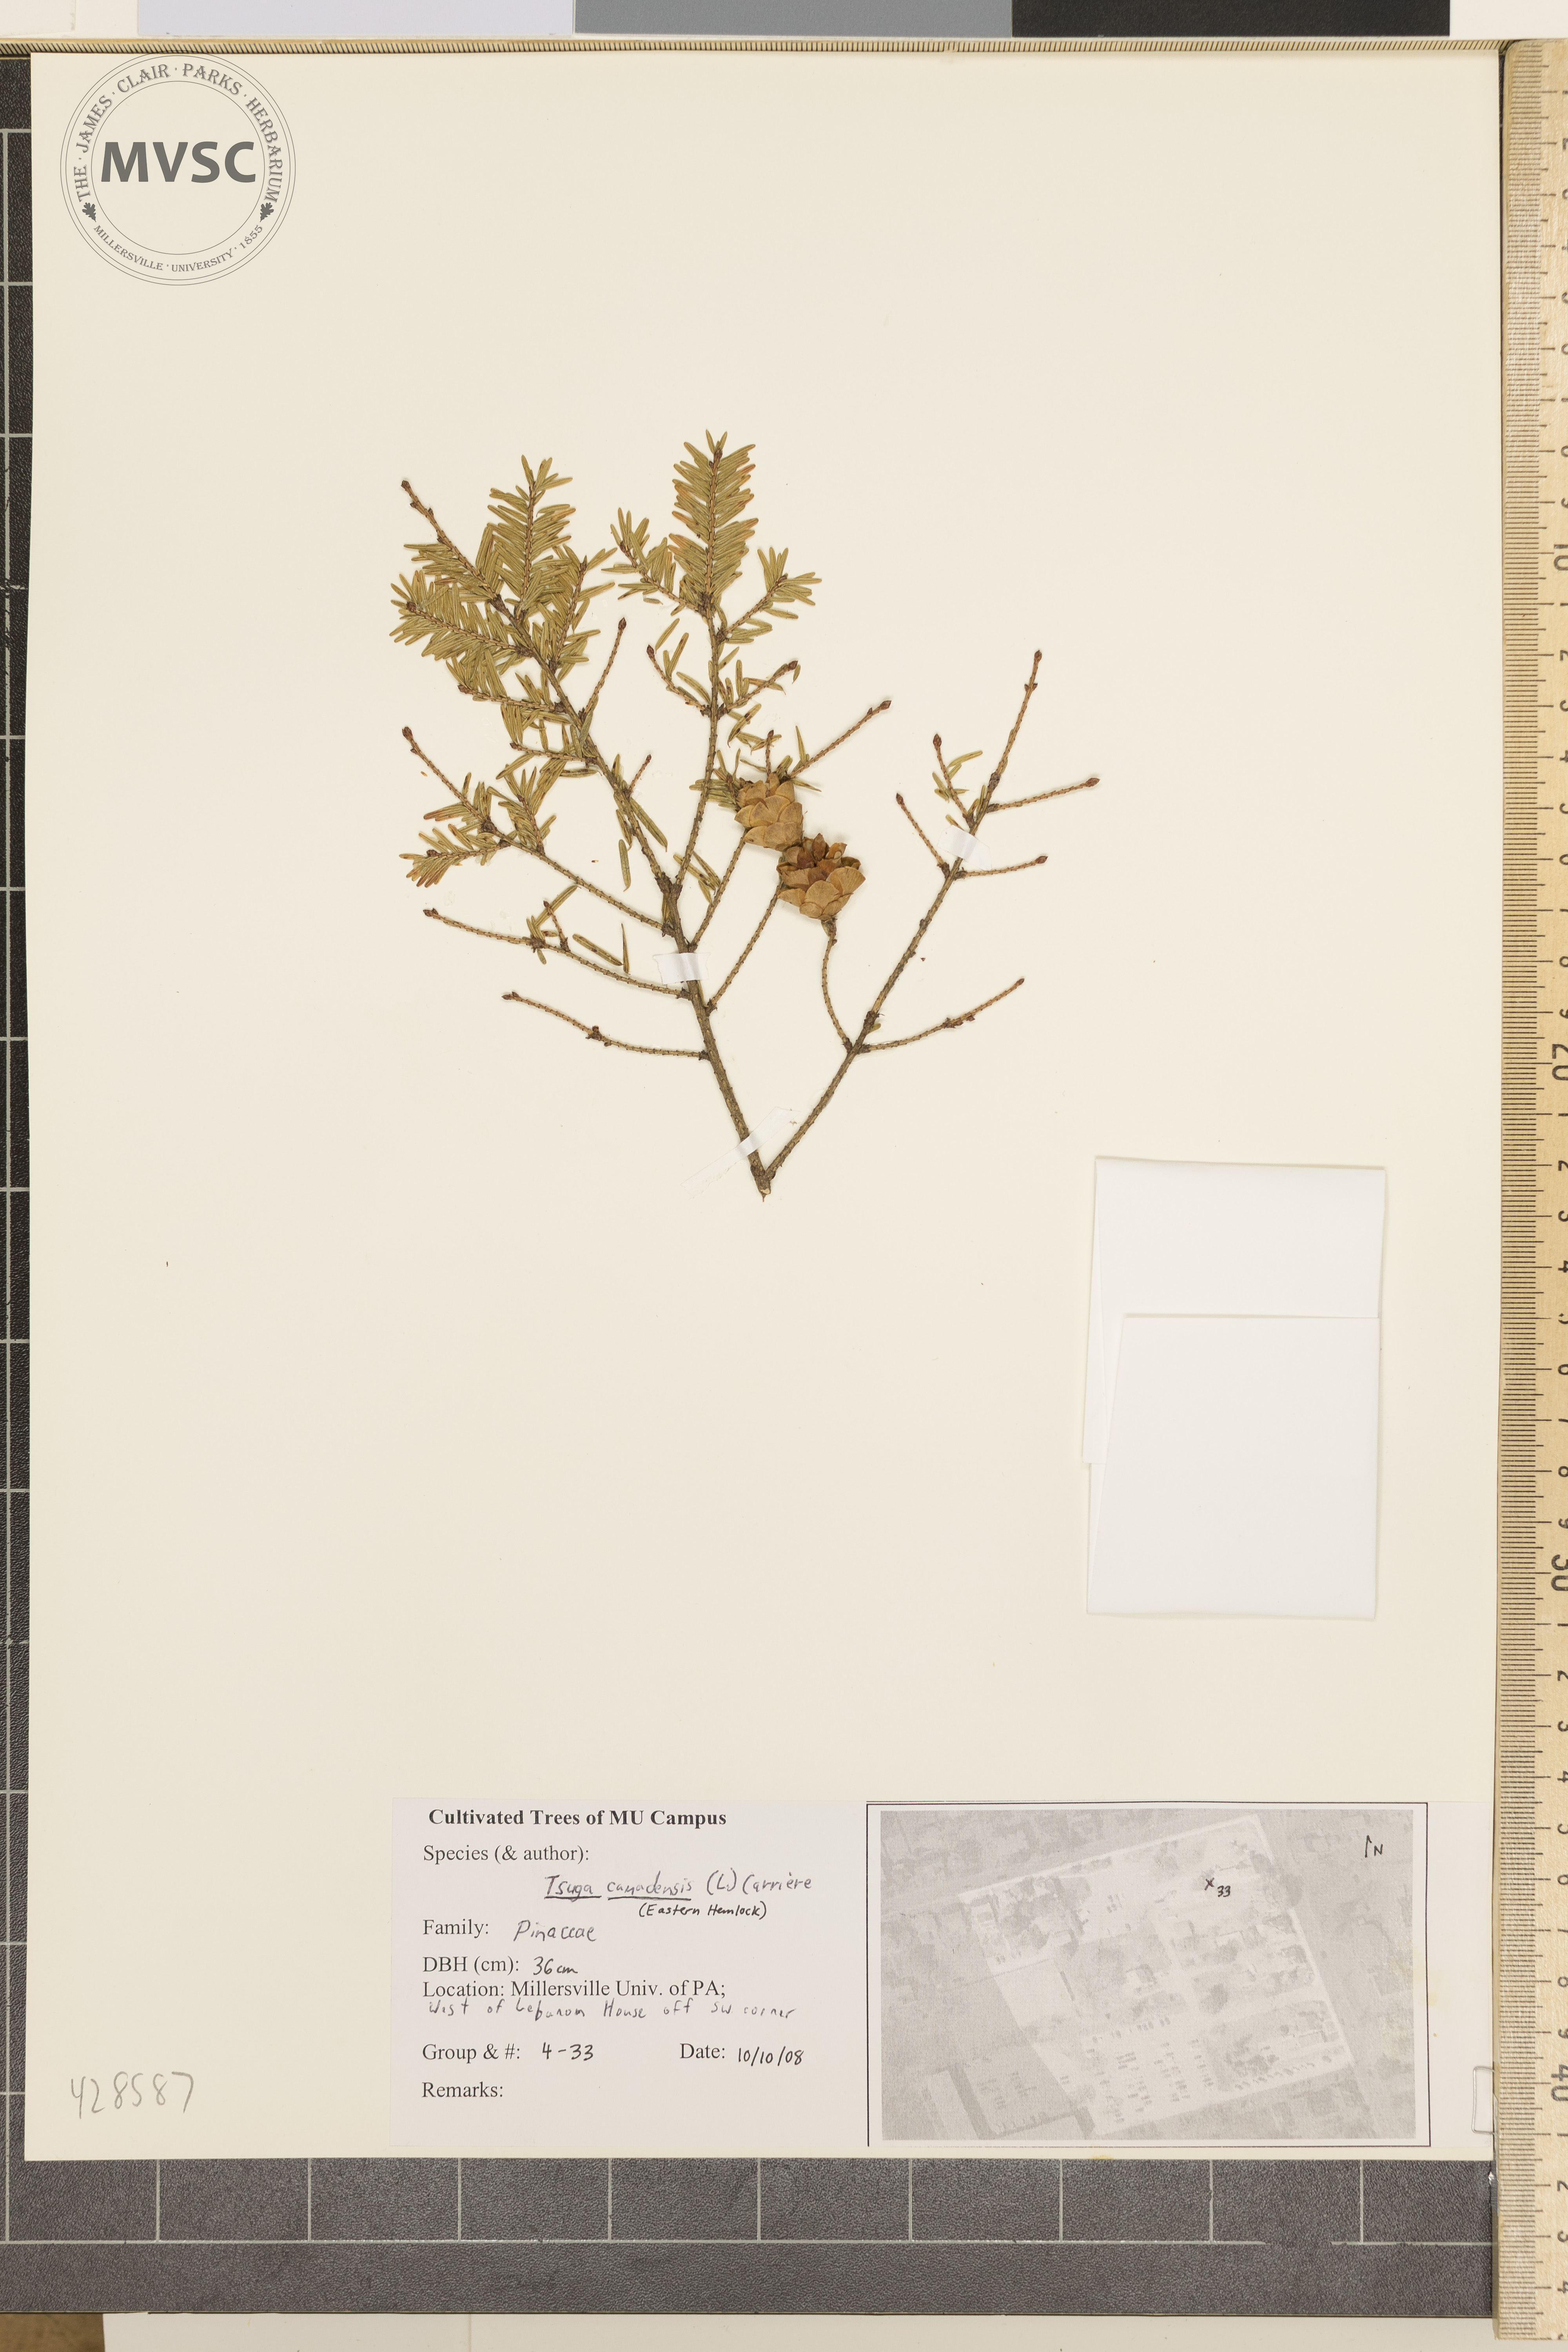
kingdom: Plantae
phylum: Tracheophyta
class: Pinopsida
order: Pinales
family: Pinaceae
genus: Tsuga
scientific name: Tsuga canadensis
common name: Canadian Hemlock
